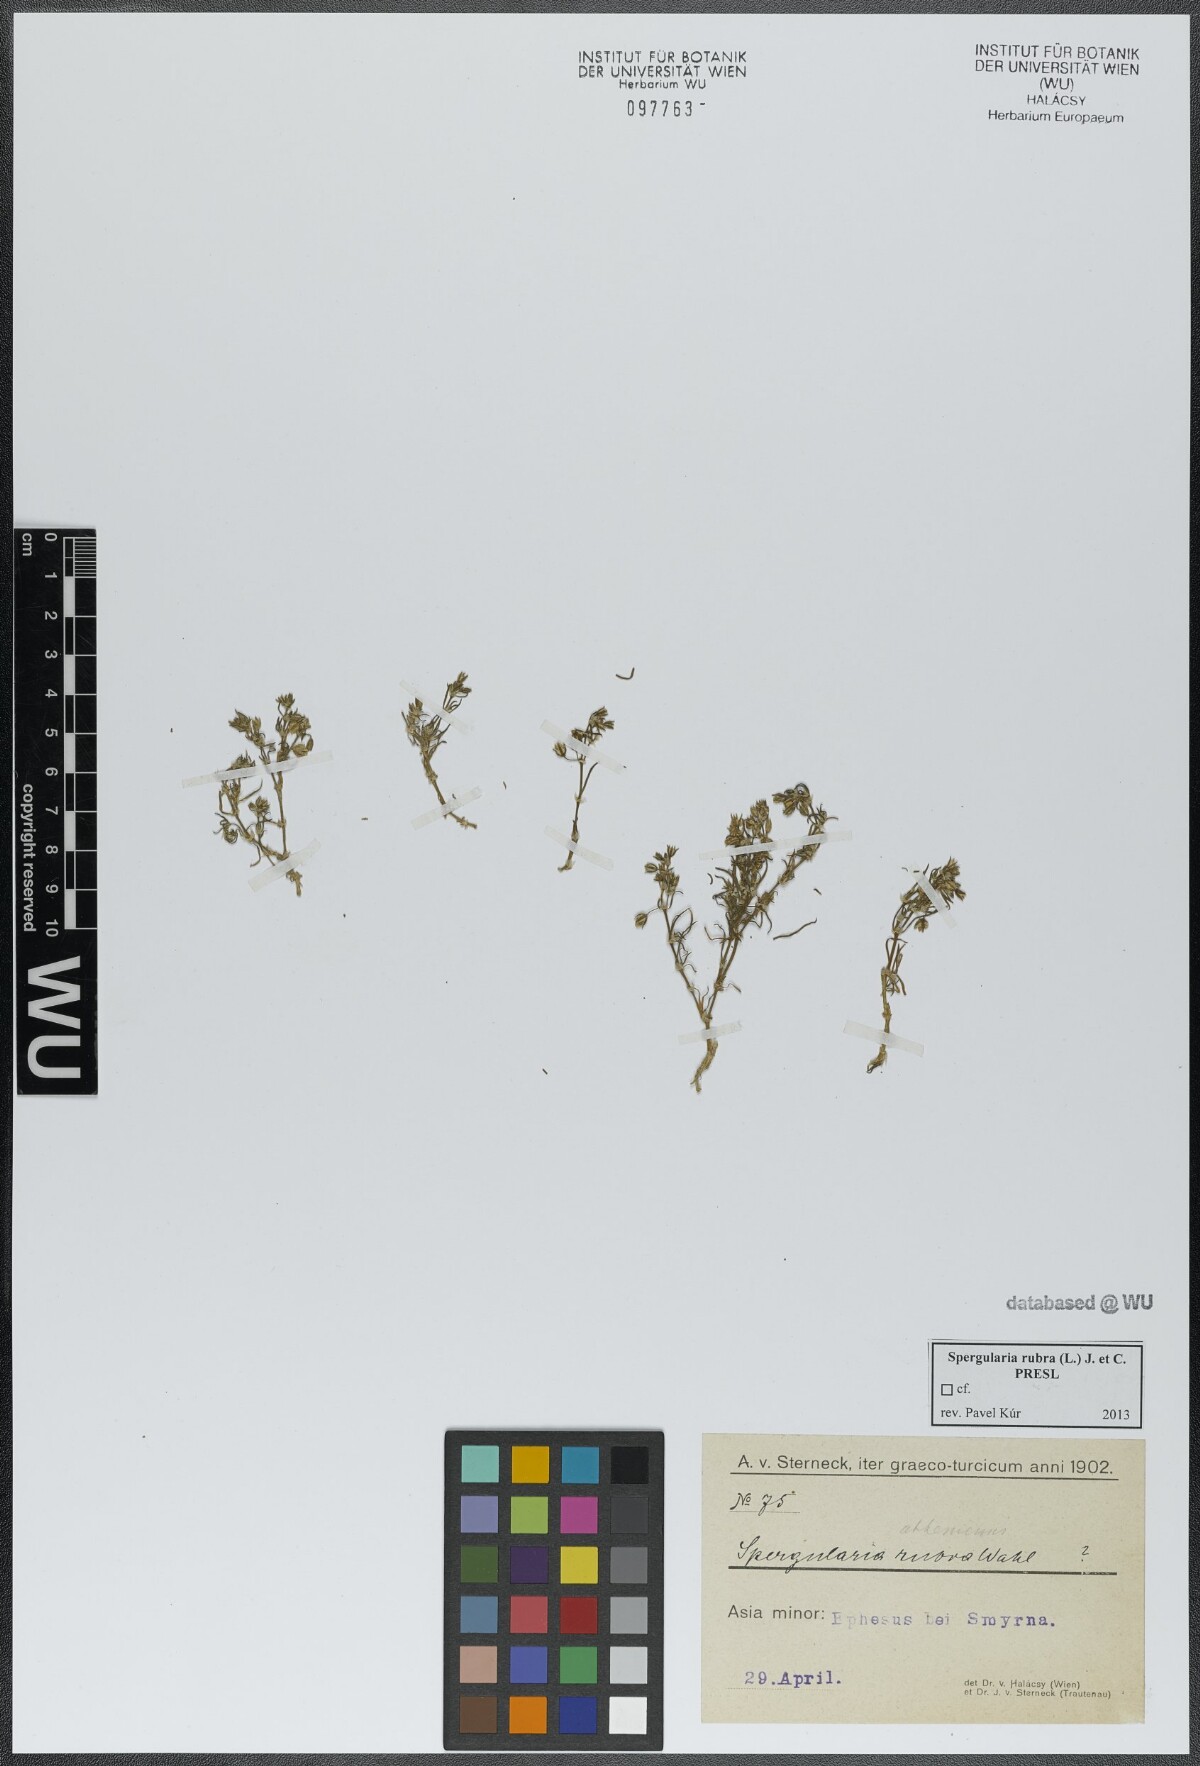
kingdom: Plantae
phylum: Tracheophyta
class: Magnoliopsida
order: Caryophyllales
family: Caryophyllaceae
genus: Spergularia
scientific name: Spergularia rubra
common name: Red sand-spurrey
